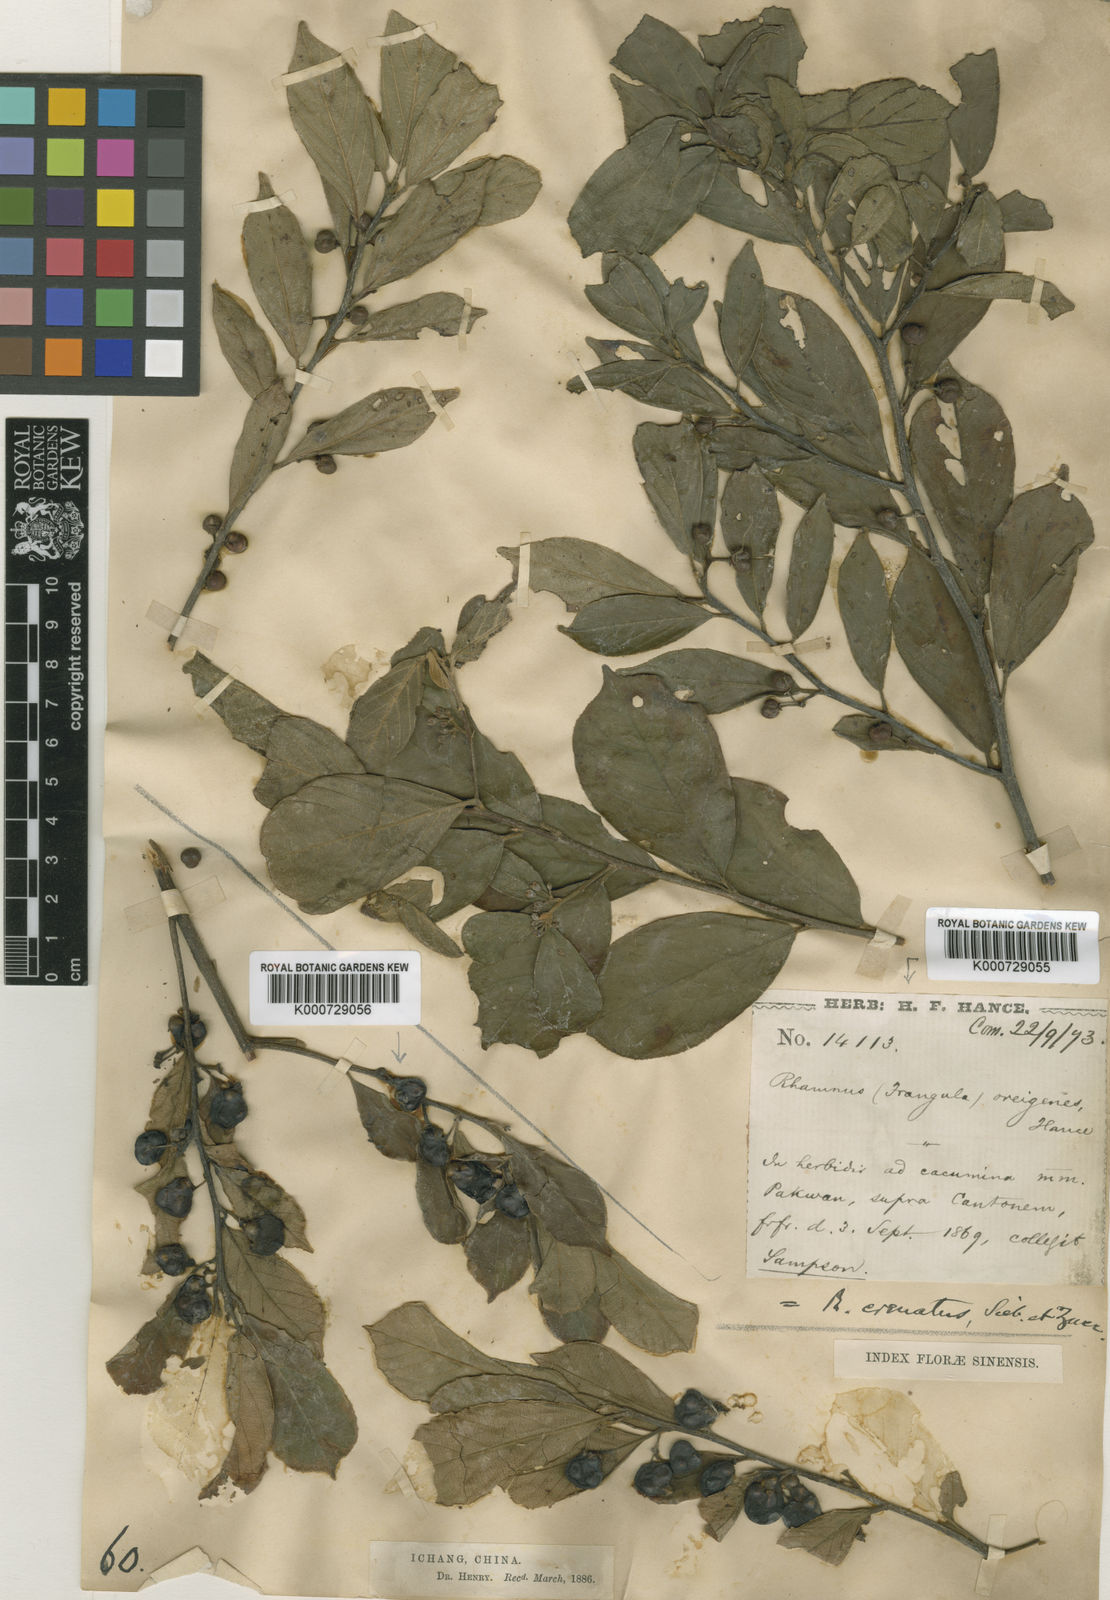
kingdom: Plantae
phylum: Tracheophyta
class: Magnoliopsida
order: Rosales
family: Rhamnaceae
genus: Frangula
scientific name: Frangula crenata
